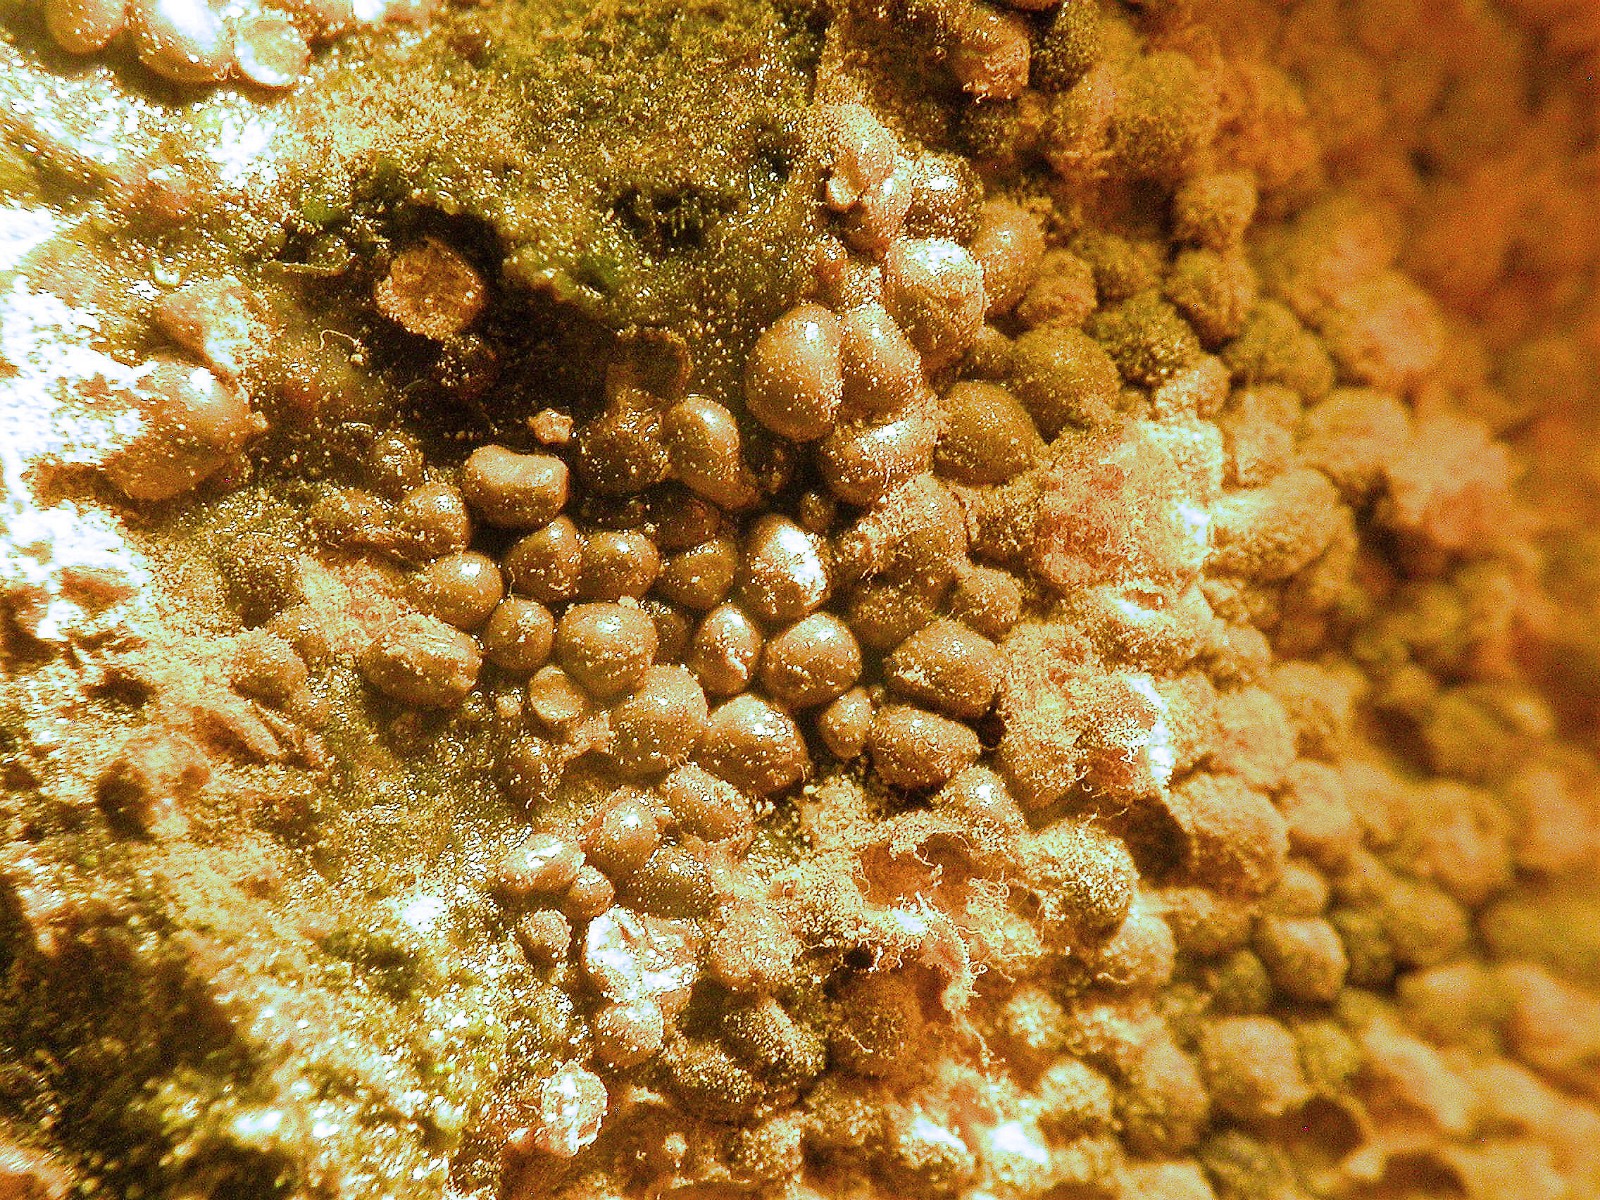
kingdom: Protozoa
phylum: Mycetozoa
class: Myxomycetes
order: Trichiales
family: Trichiaceae
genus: Trichia
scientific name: Trichia scabra
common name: tæppe-hårbold
